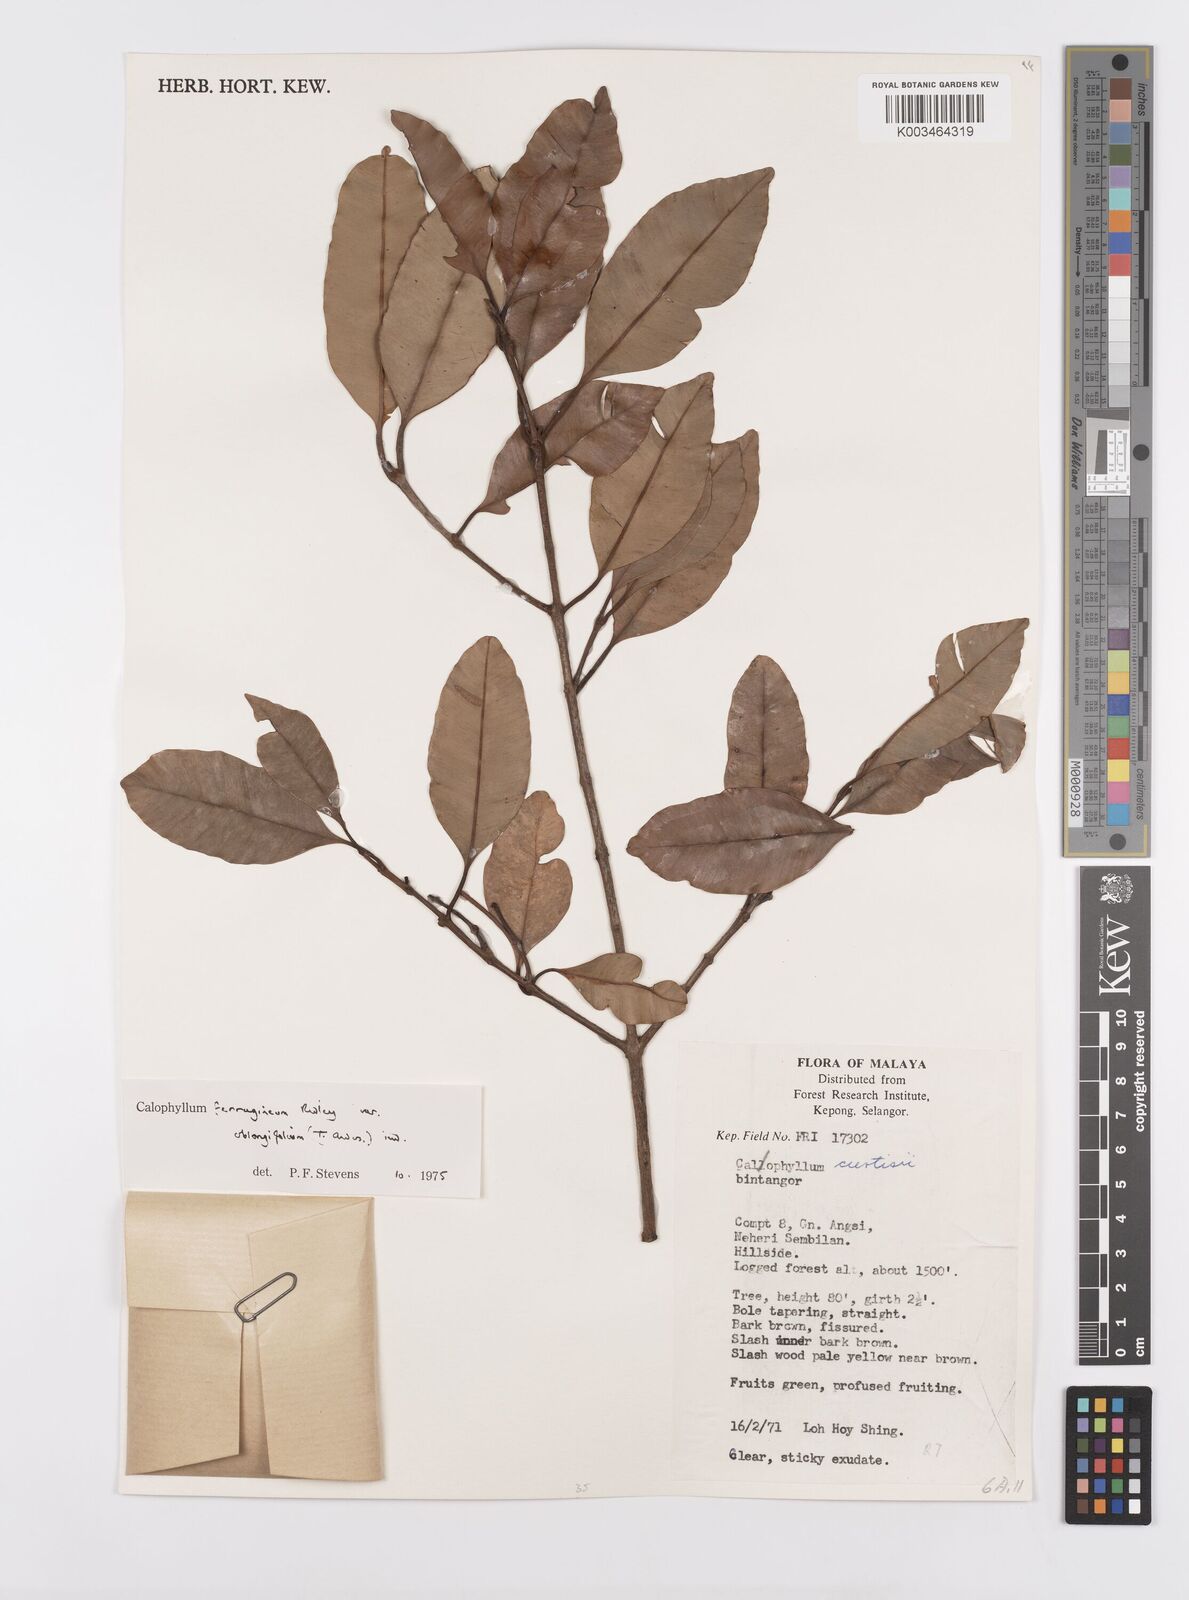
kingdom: Plantae
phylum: Tracheophyta
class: Magnoliopsida
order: Malpighiales
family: Calophyllaceae
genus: Calophyllum
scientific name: Calophyllum ferrugineum
